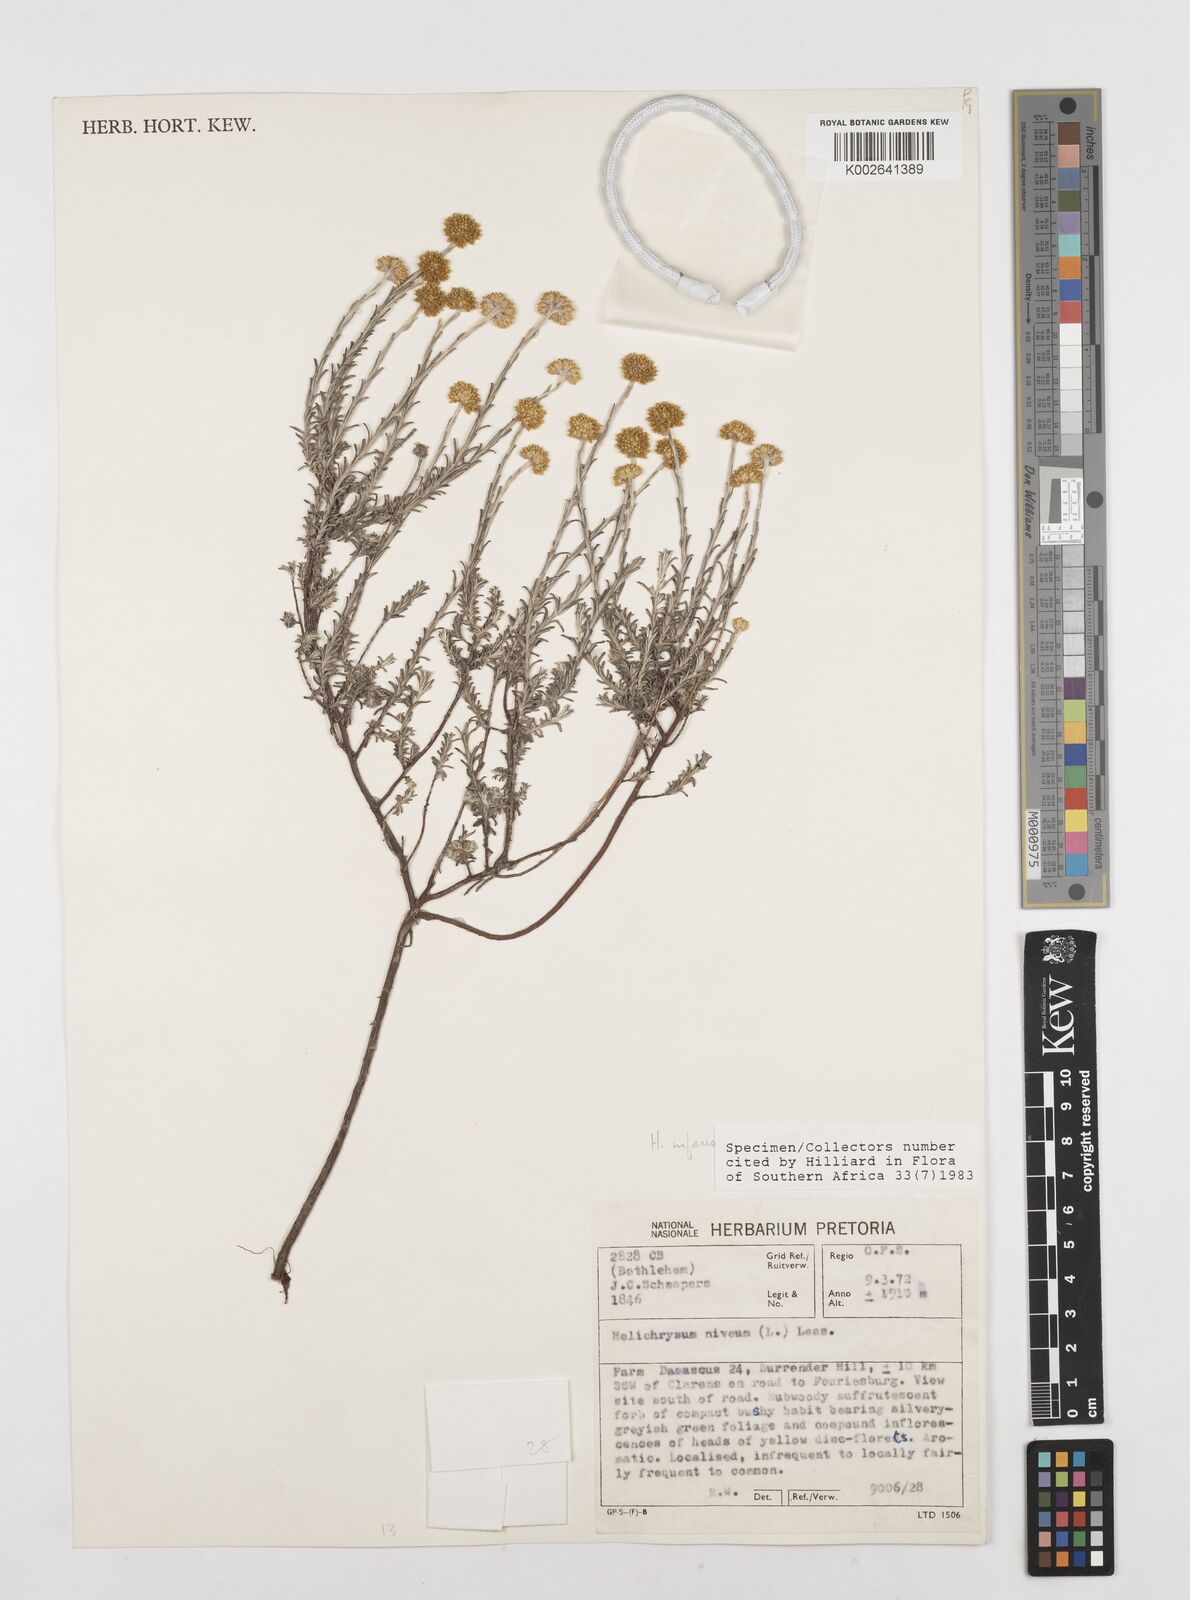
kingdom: Plantae
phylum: Tracheophyta
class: Magnoliopsida
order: Asterales
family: Asteraceae
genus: Calomeria
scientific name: Calomeria infausta
